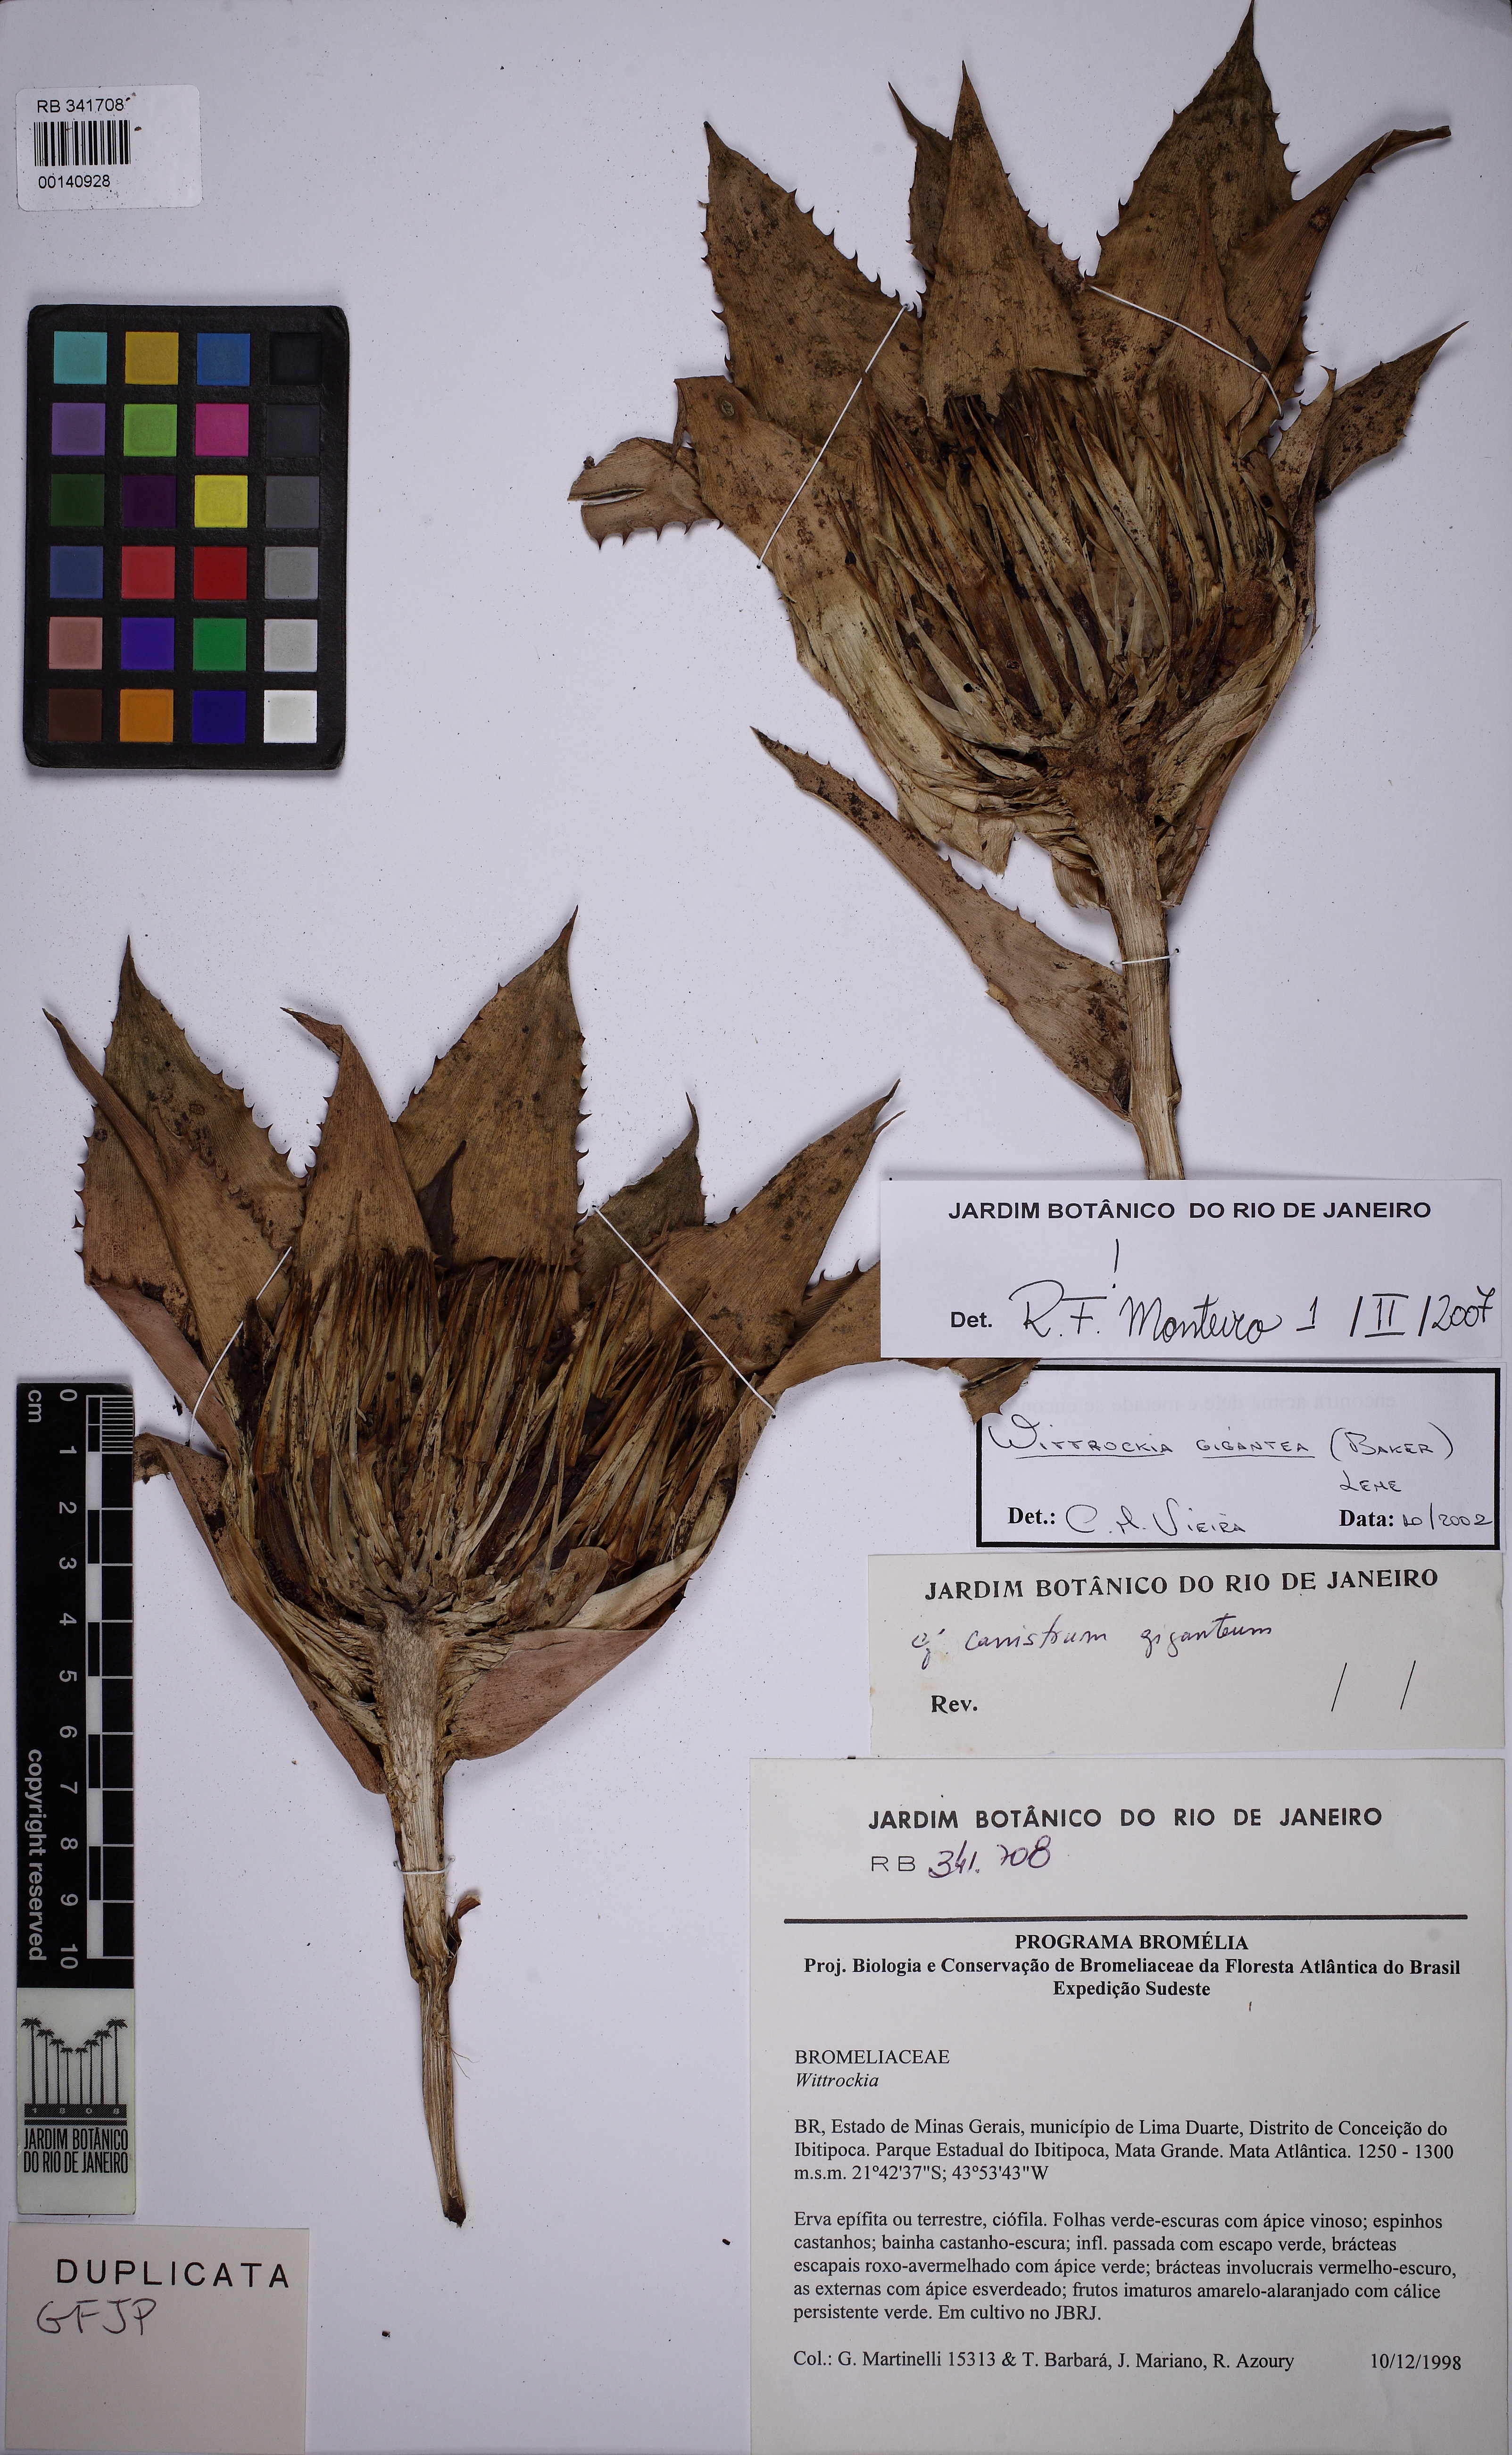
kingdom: Plantae
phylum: Tracheophyta
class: Liliopsida
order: Poales
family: Bromeliaceae
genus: Wittrockia
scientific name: Wittrockia gigantea
